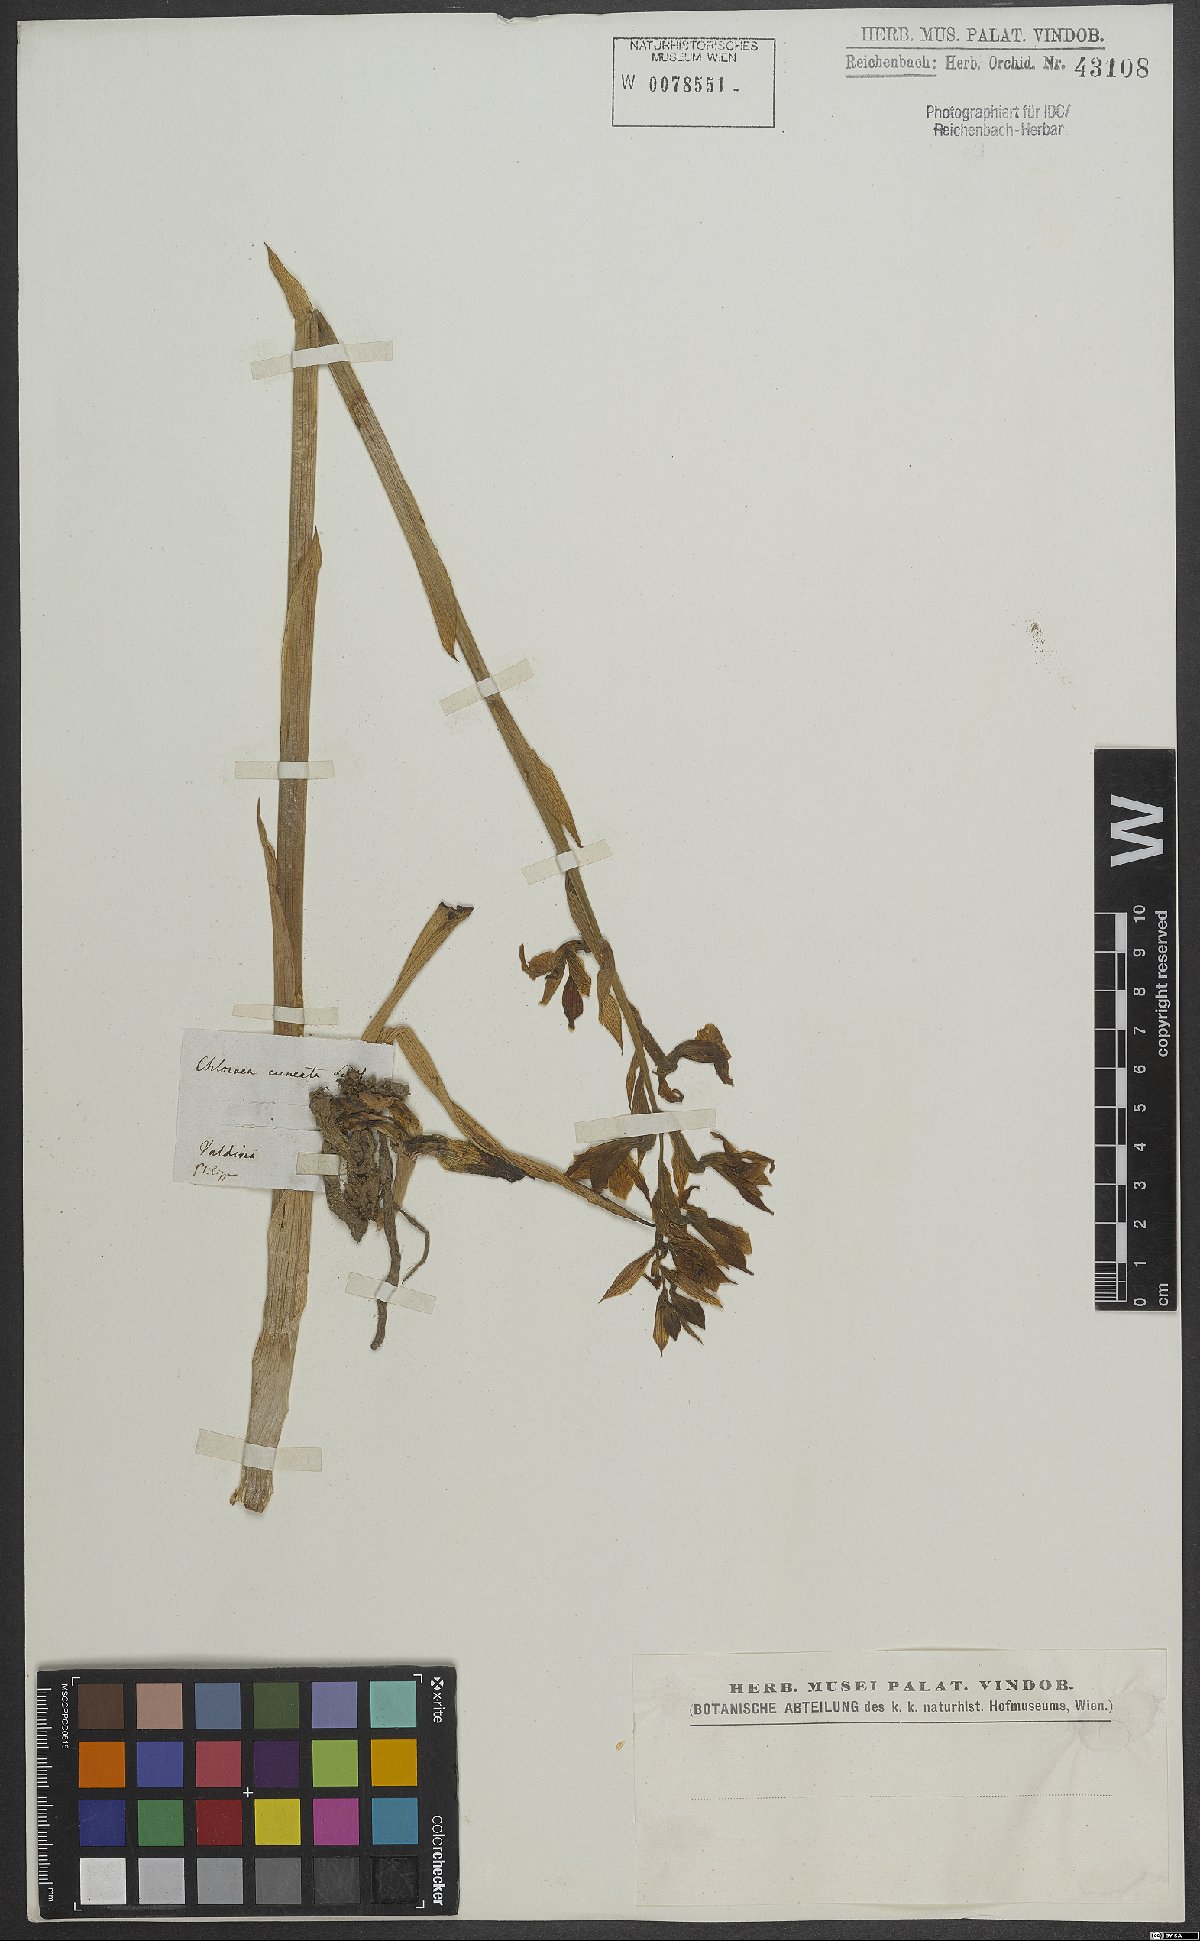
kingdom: Plantae
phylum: Tracheophyta
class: Liliopsida
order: Asparagales
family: Orchidaceae
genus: Chloraea
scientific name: Chloraea
